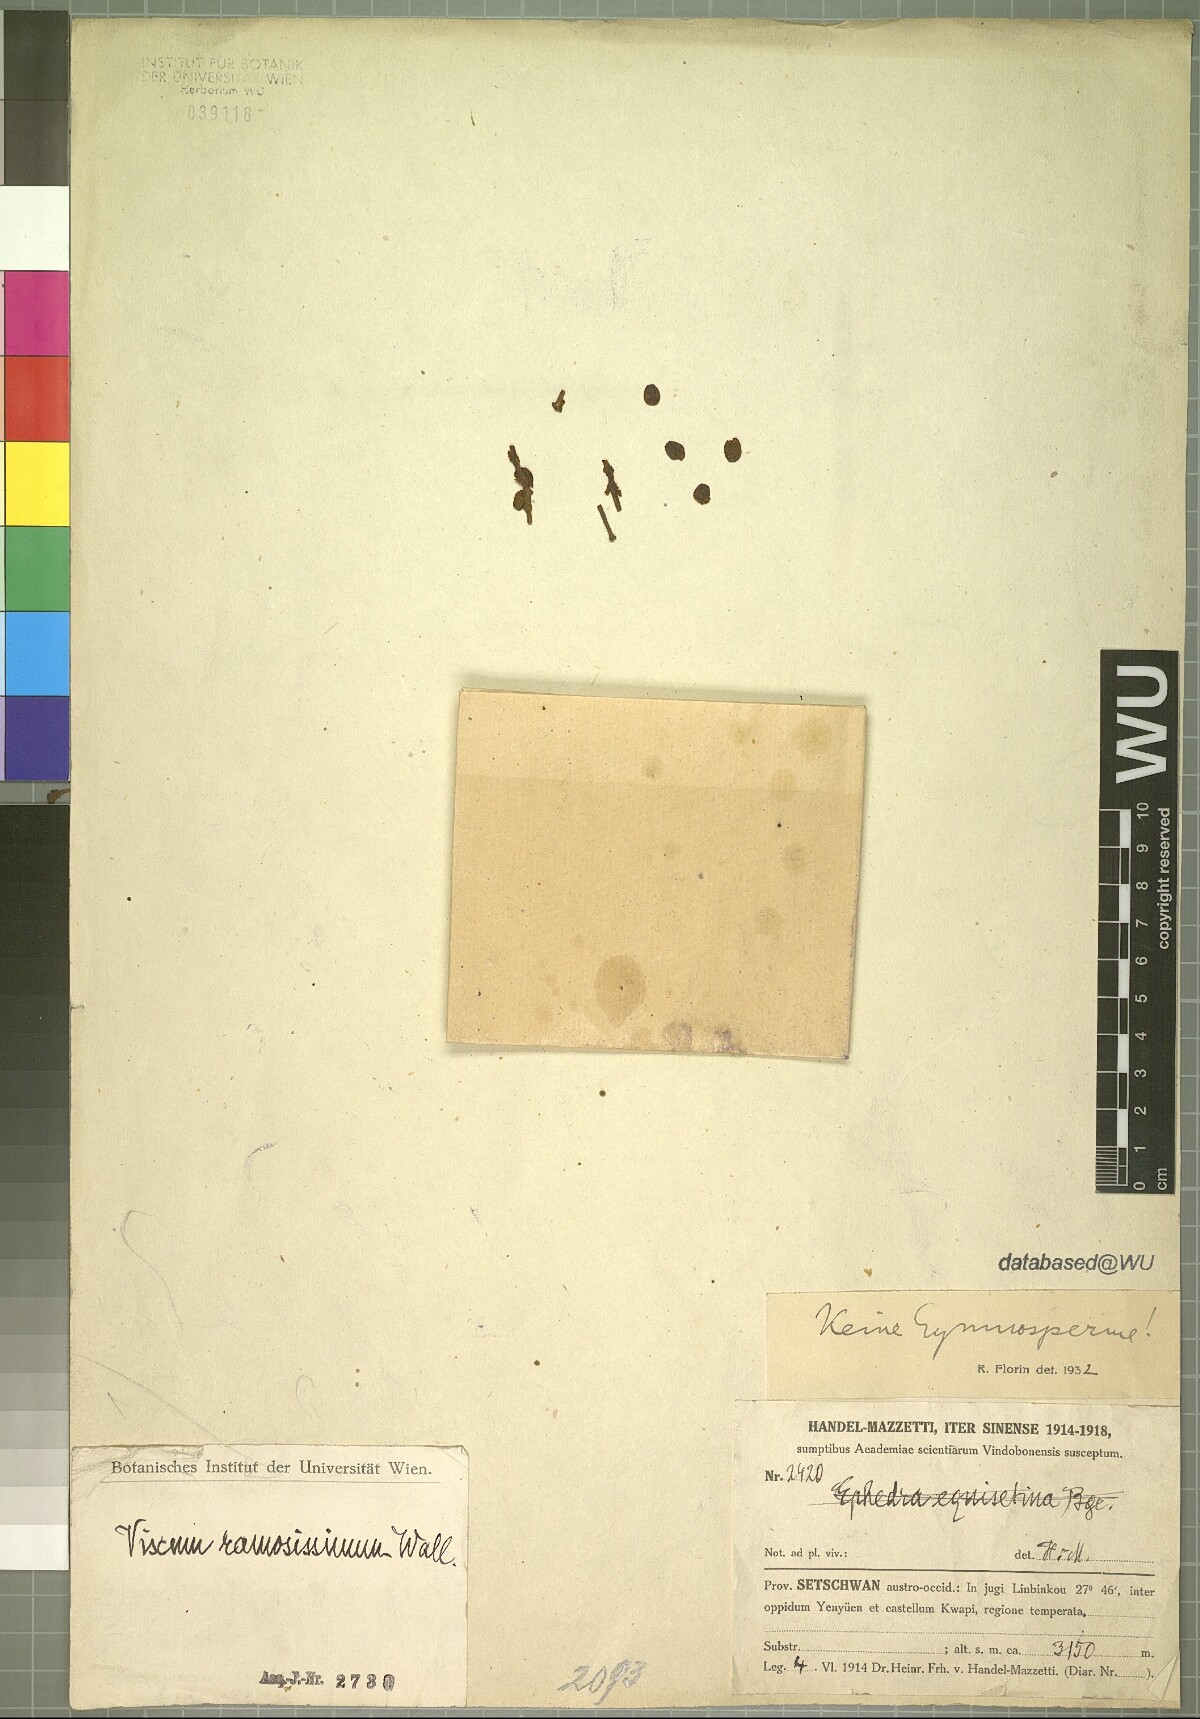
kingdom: Plantae
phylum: Tracheophyta
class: Magnoliopsida
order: Santalales
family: Viscaceae
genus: Viscum
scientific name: Viscum ramosissimum
